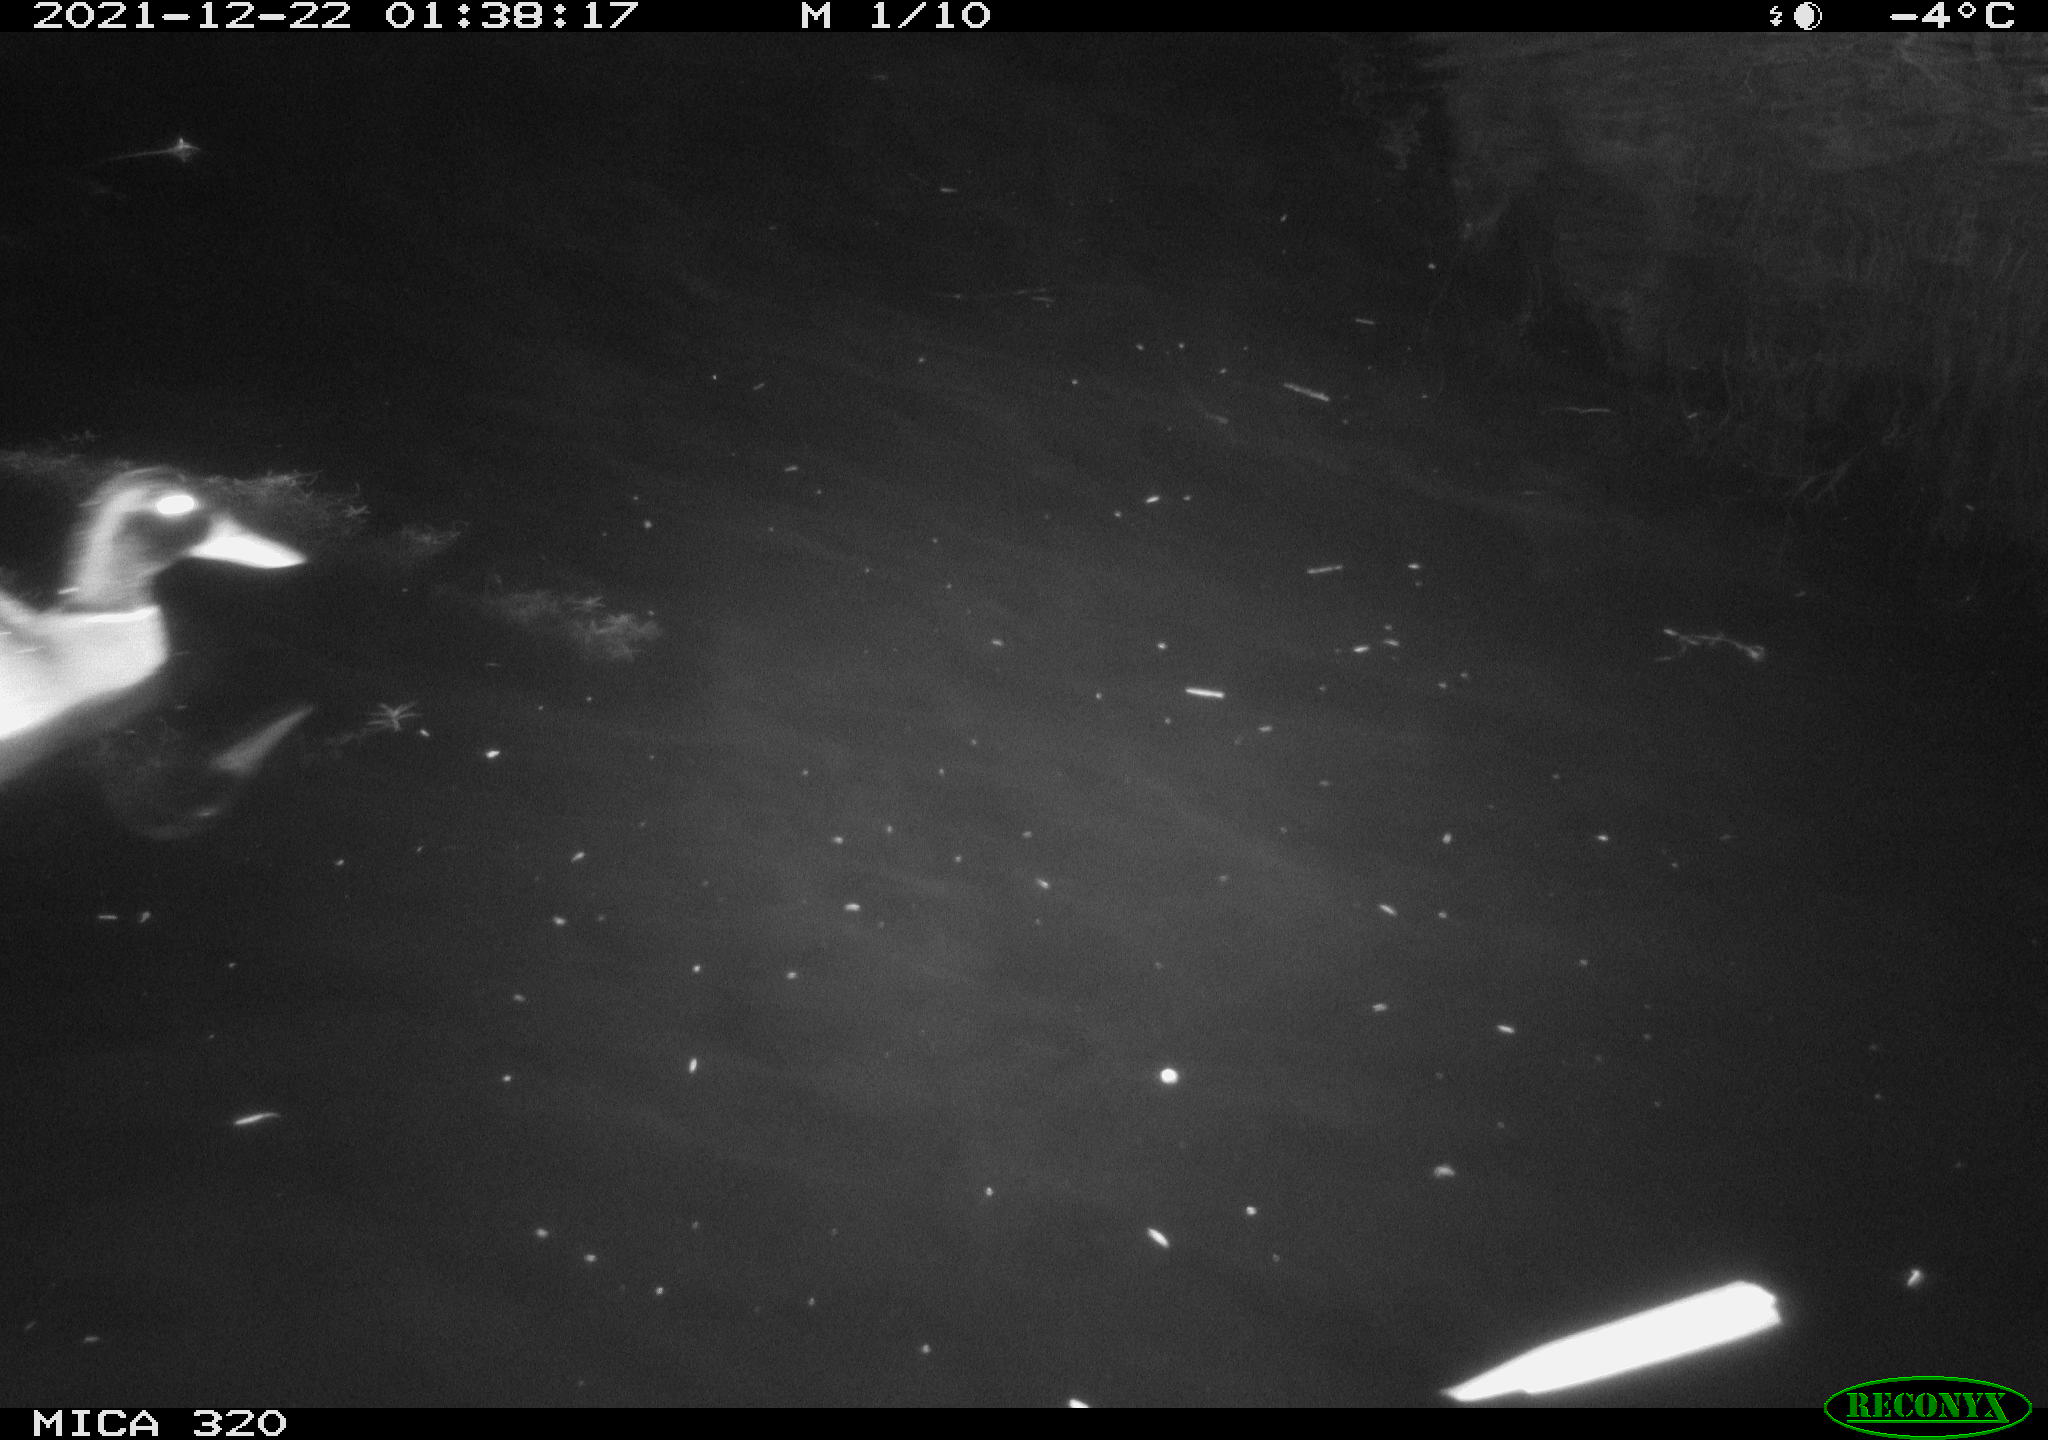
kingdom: Animalia
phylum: Chordata
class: Aves
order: Anseriformes
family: Anatidae
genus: Anas
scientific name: Anas platyrhynchos
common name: Mallard
